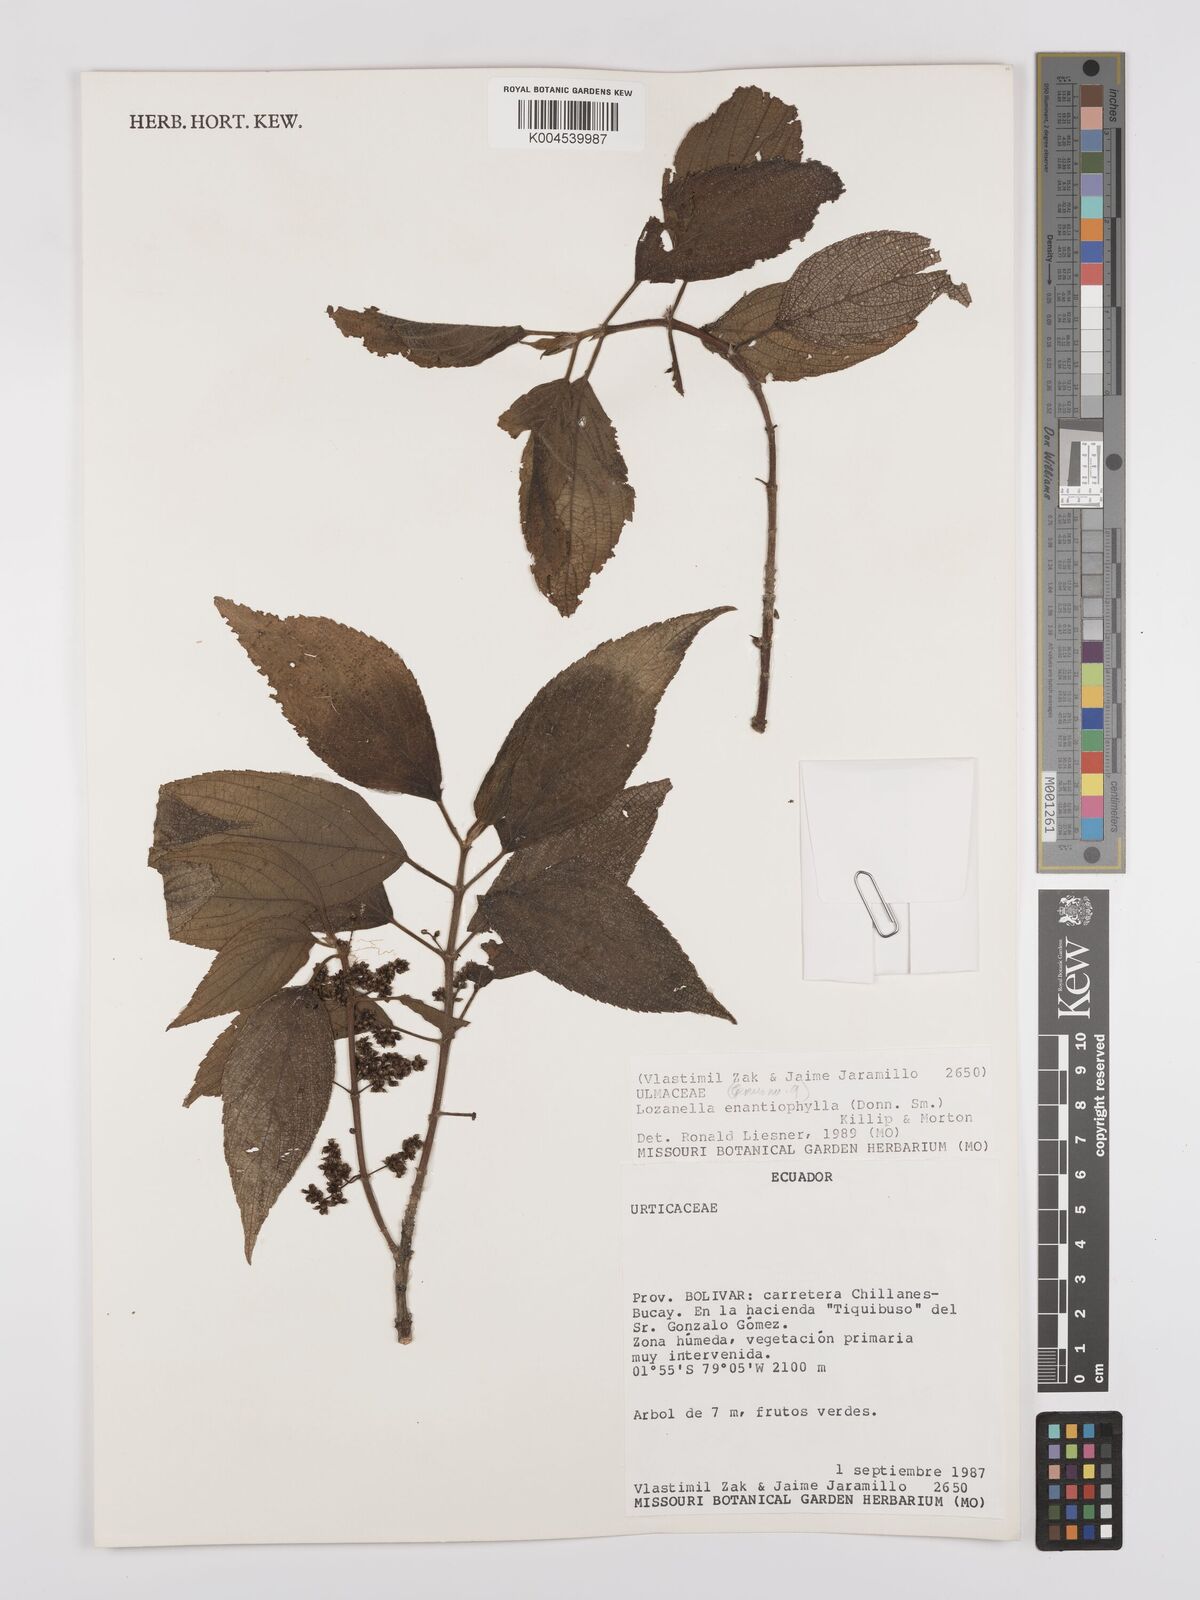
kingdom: Plantae
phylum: Tracheophyta
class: Magnoliopsida
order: Rosales
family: Cannabaceae
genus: Lozanella
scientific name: Lozanella enantiophylla
